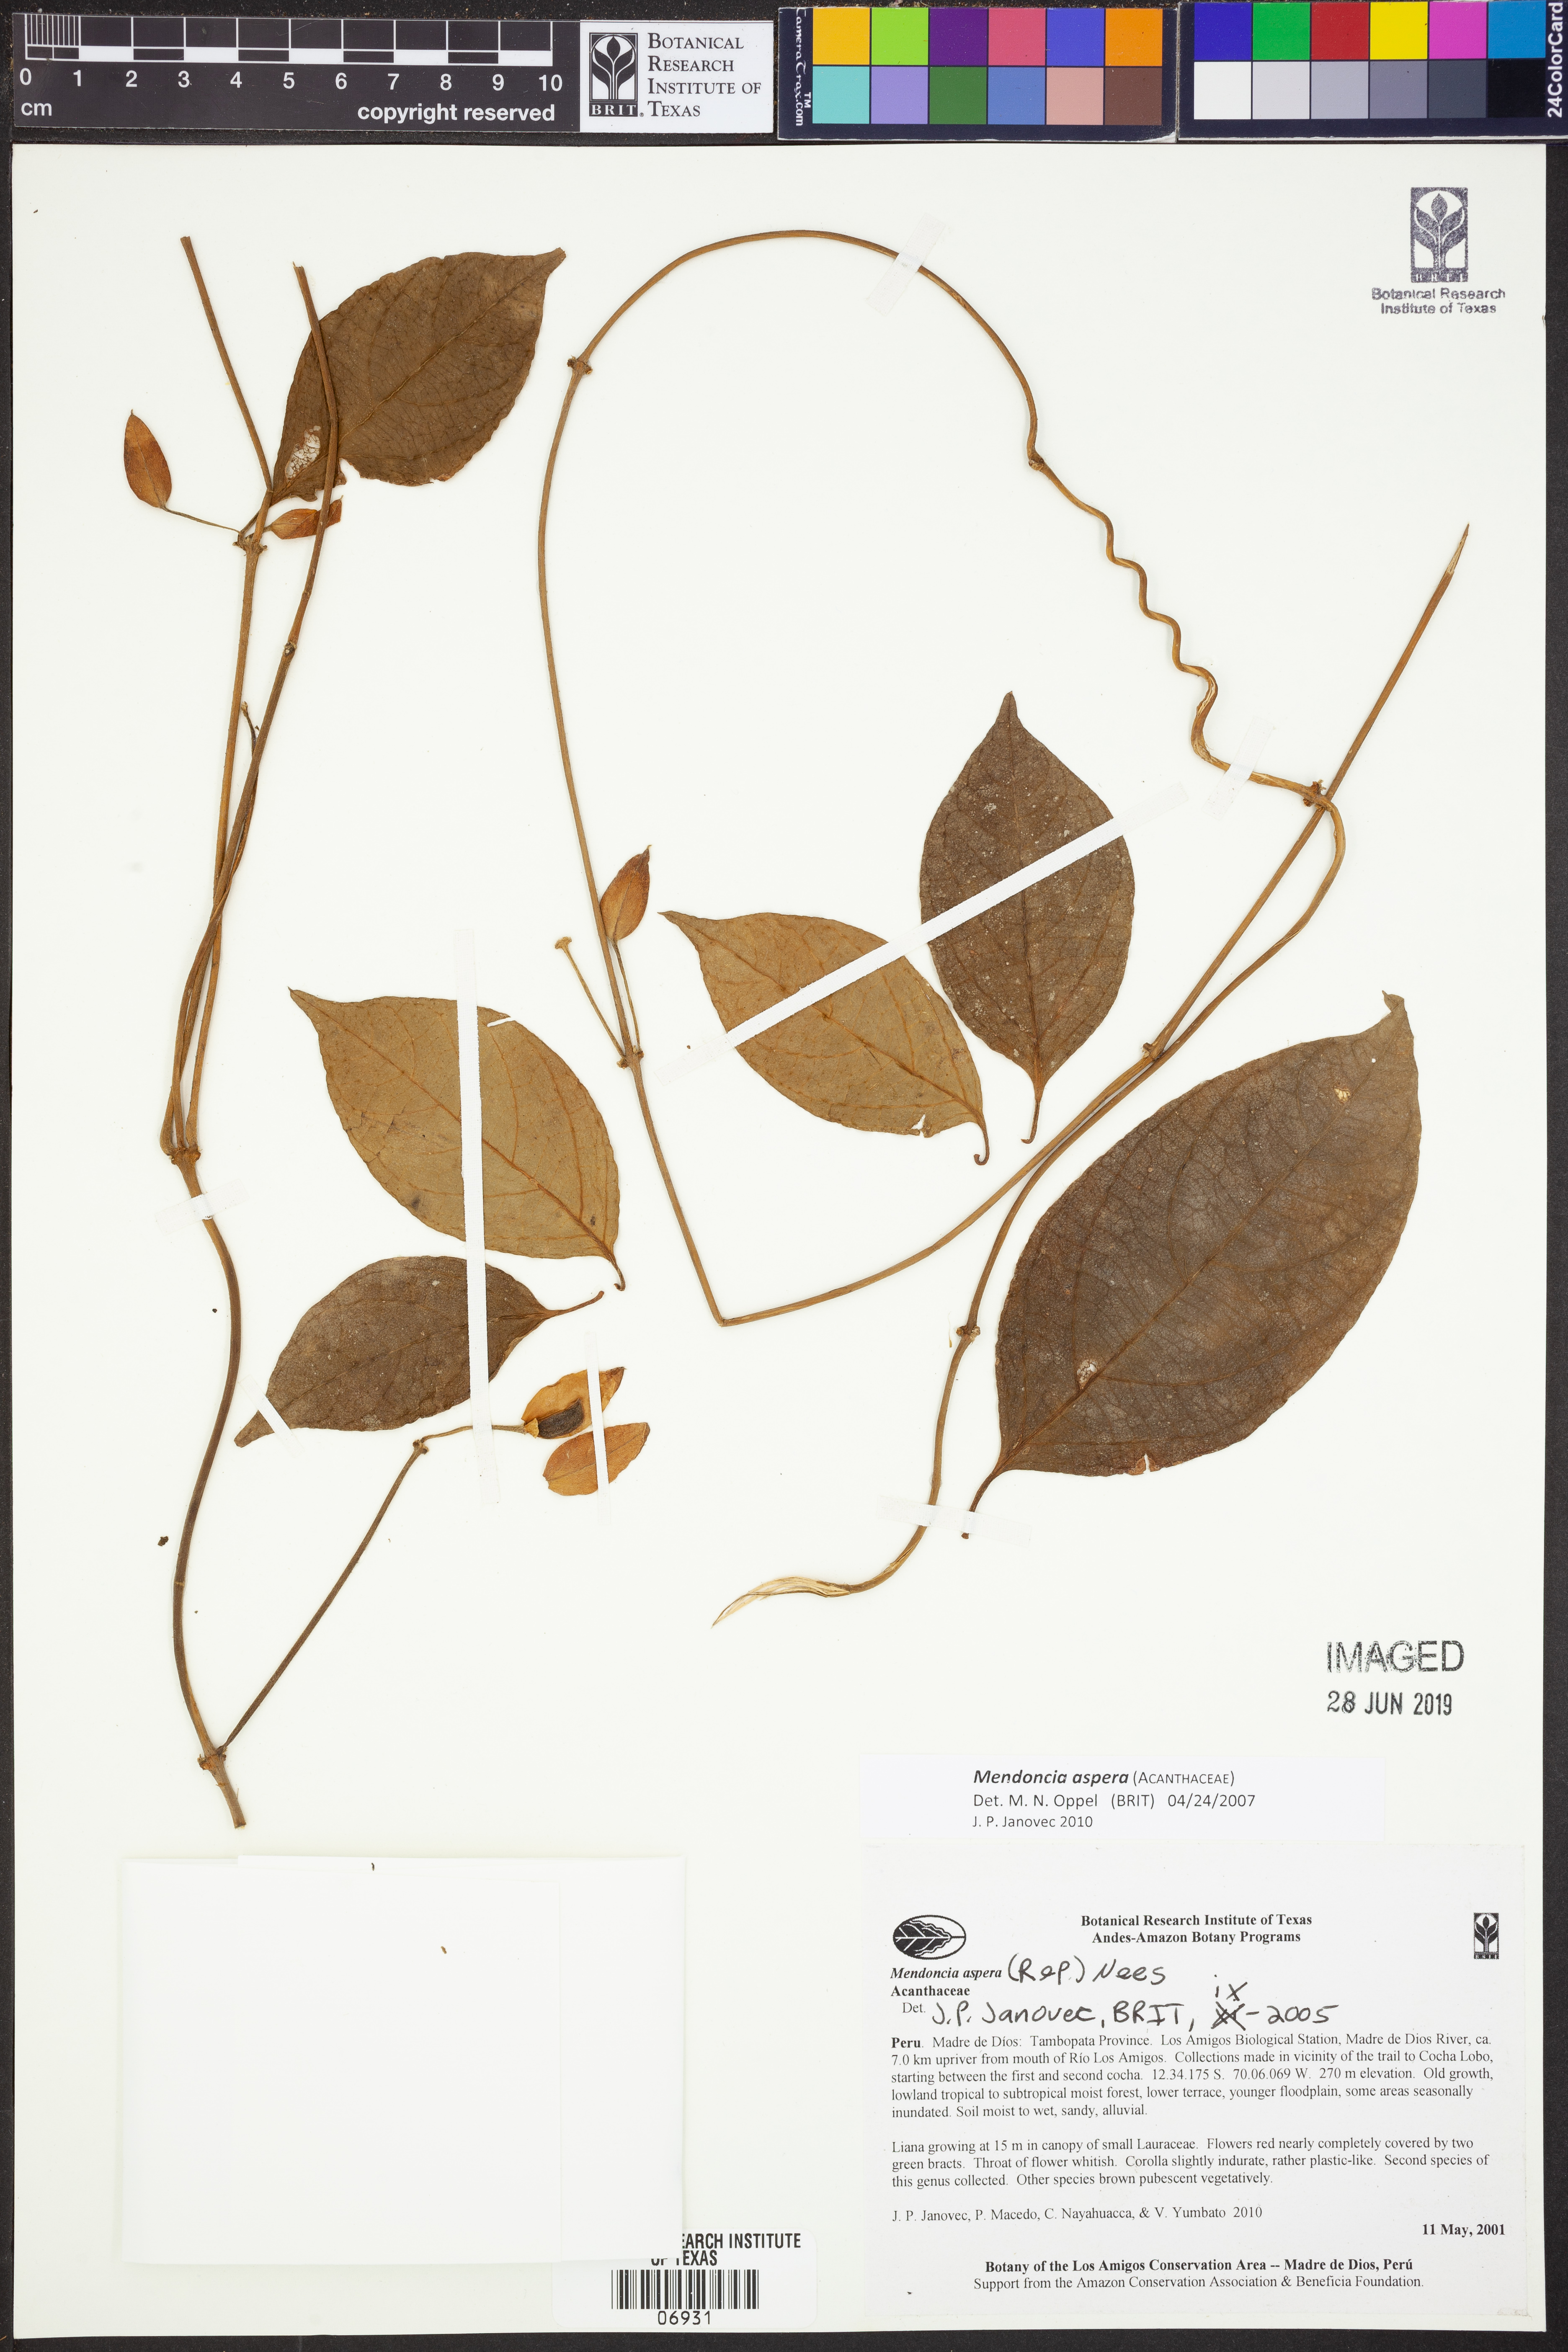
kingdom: Plantae
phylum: Tracheophyta
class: Magnoliopsida
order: Lamiales
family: Acanthaceae
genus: Mendoncia
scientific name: Mendoncia
